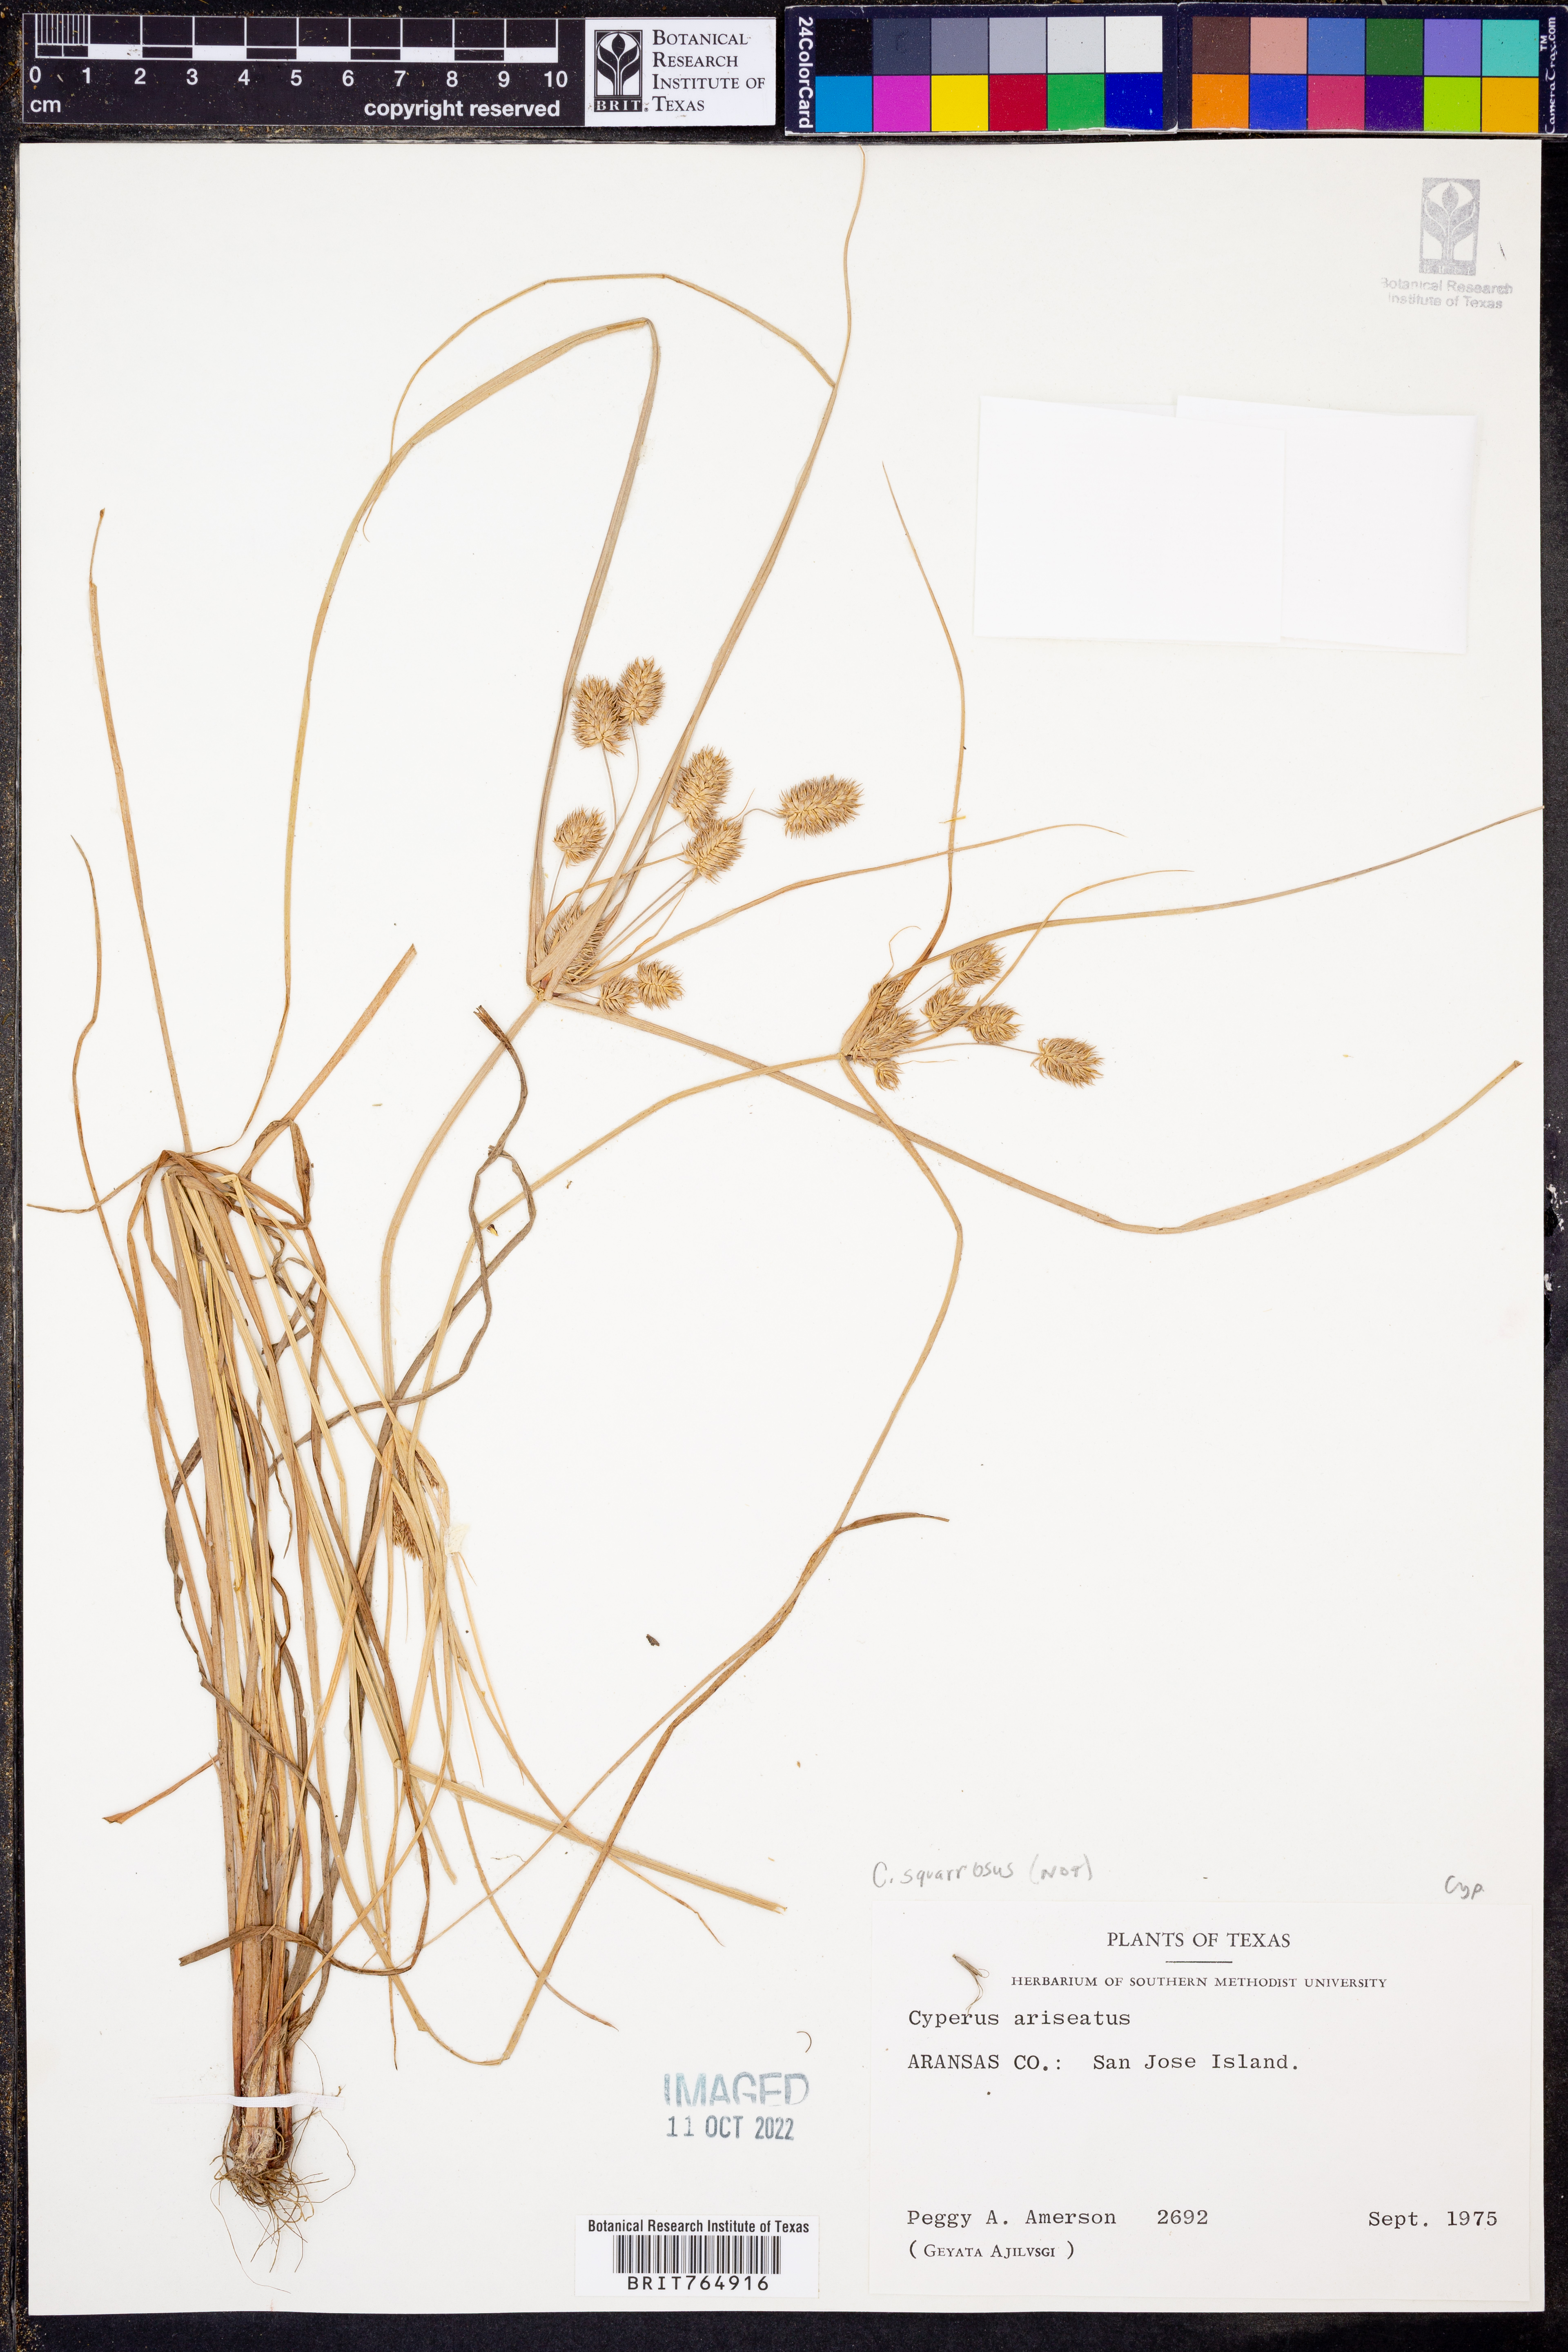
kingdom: Plantae
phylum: Tracheophyta
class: Liliopsida
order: Poales
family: Cyperaceae
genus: Cyperus
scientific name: Cyperus squarrosus
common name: Awned cyperus
